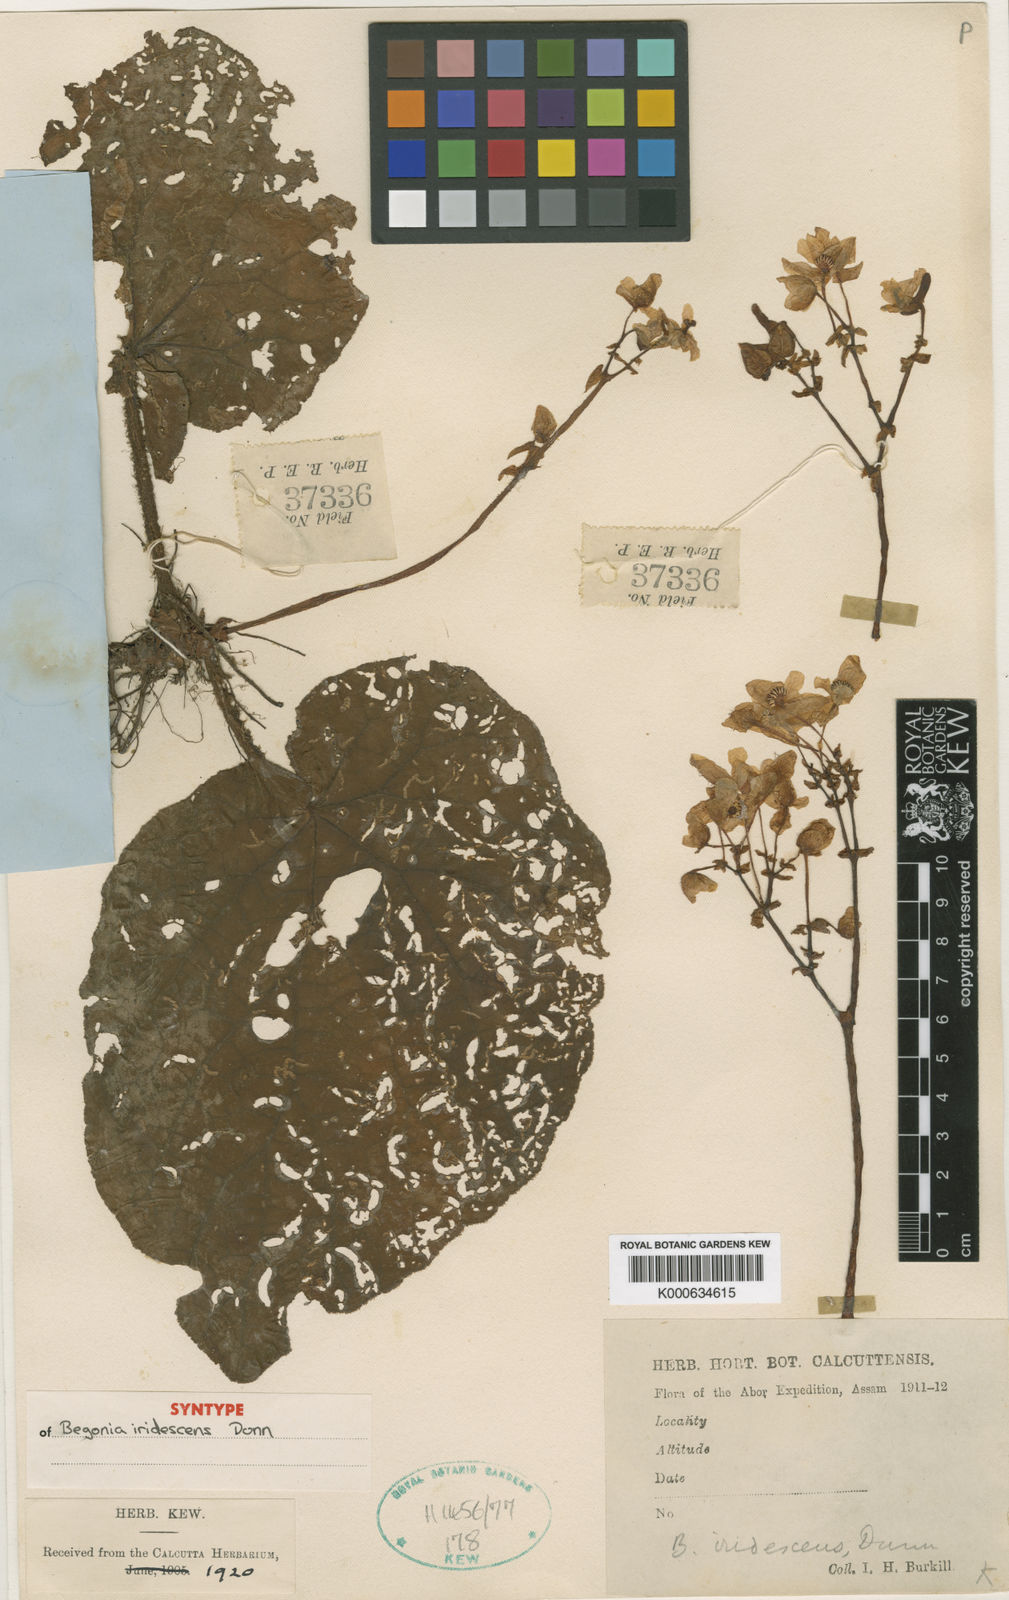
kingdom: Plantae
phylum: Tracheophyta
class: Magnoliopsida
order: Cucurbitales
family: Begoniaceae
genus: Begonia
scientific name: Begonia iridescens
